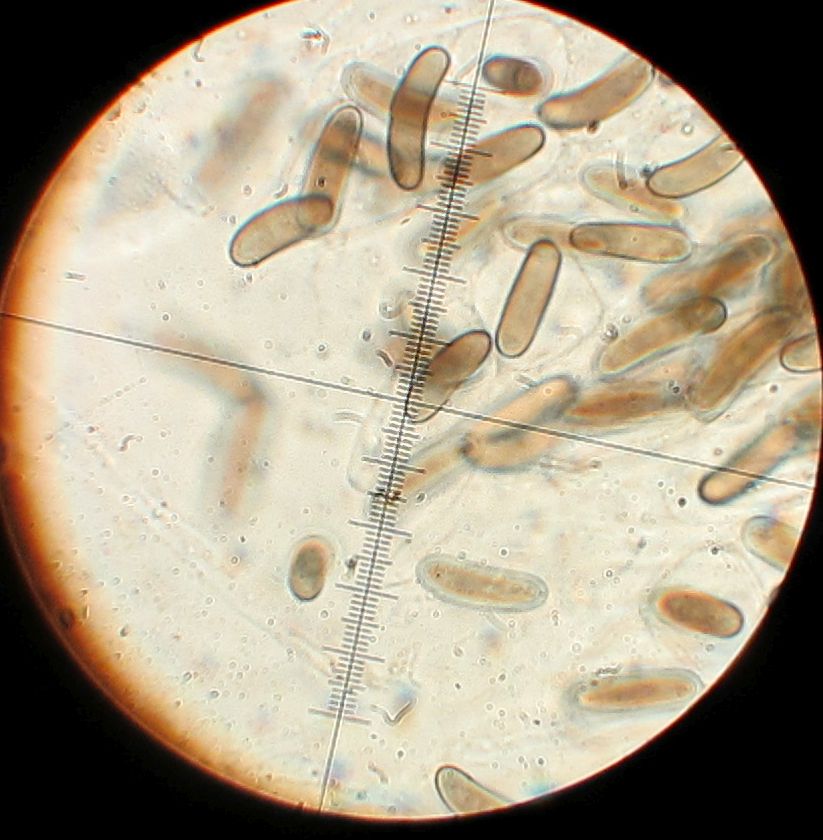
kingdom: Fungi
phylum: Ascomycota
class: Sordariomycetes
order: Xylariales
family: Diatrypaceae
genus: Quaternaria
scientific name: Quaternaria dissepta
